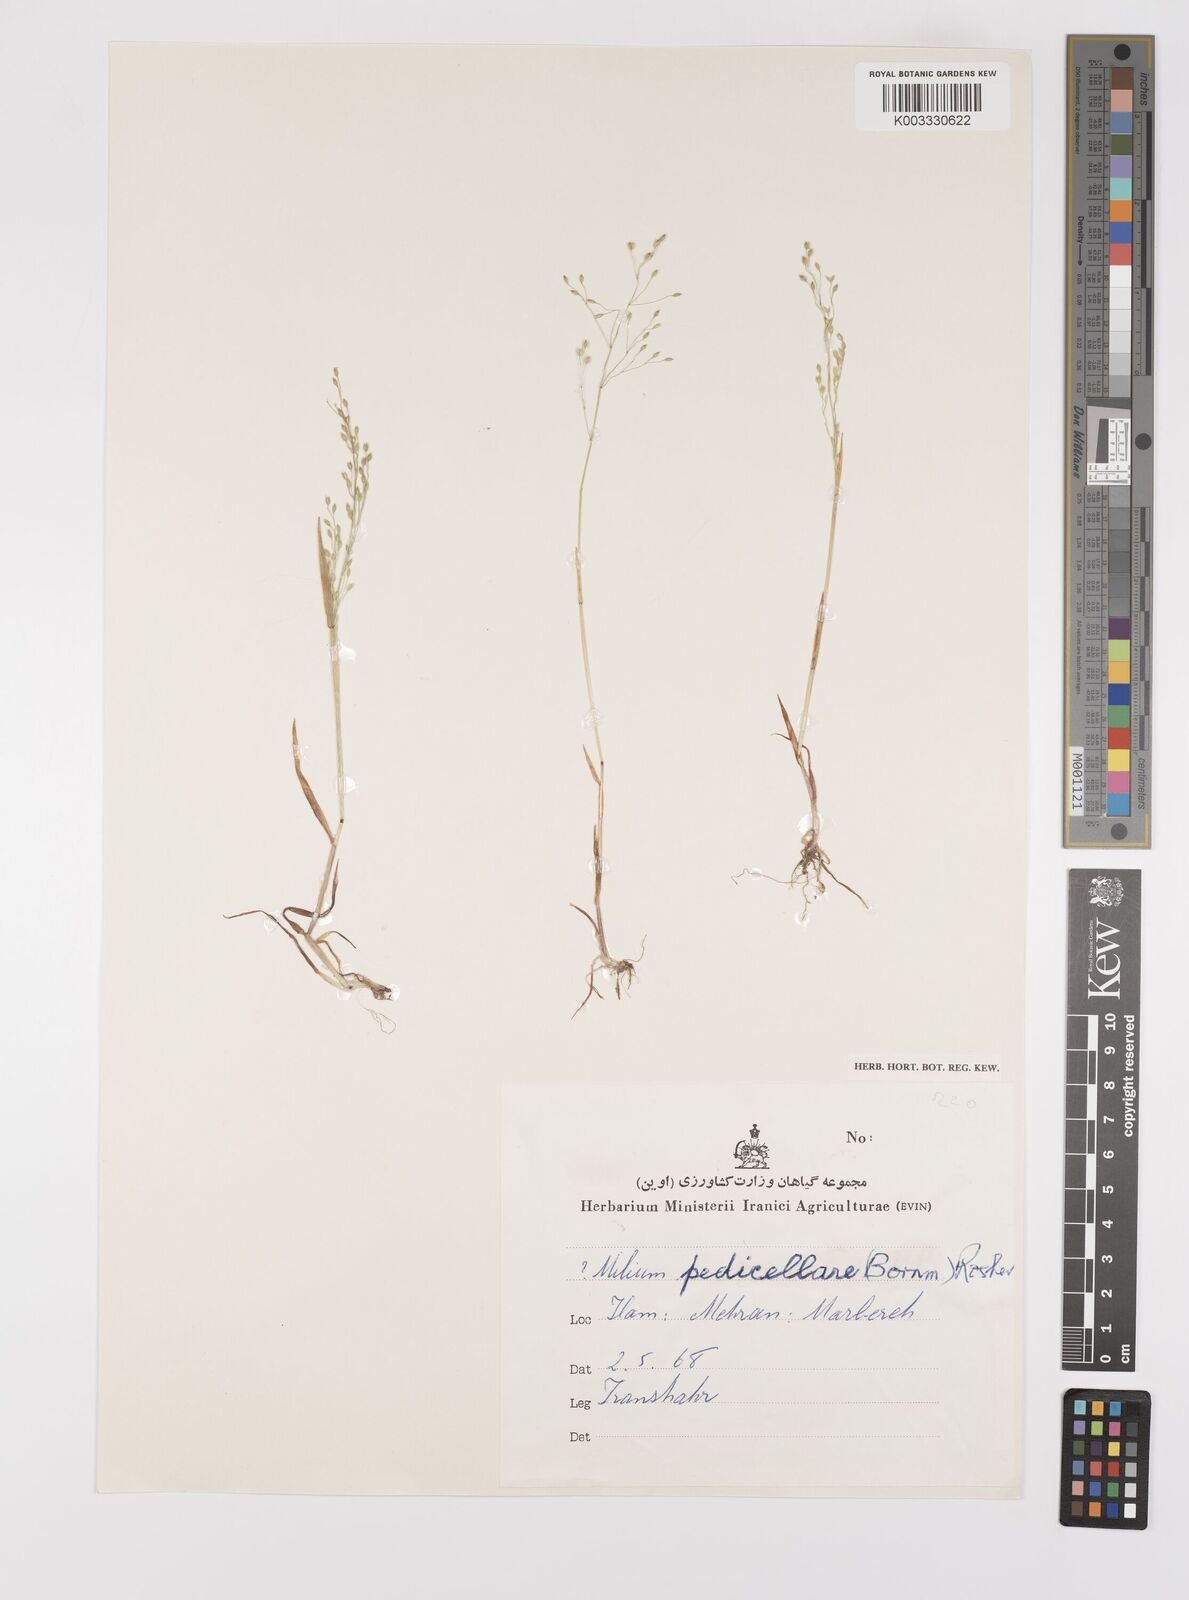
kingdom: Plantae
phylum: Tracheophyta
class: Liliopsida
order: Poales
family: Poaceae
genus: Milium
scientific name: Milium vernale
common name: Early millet
